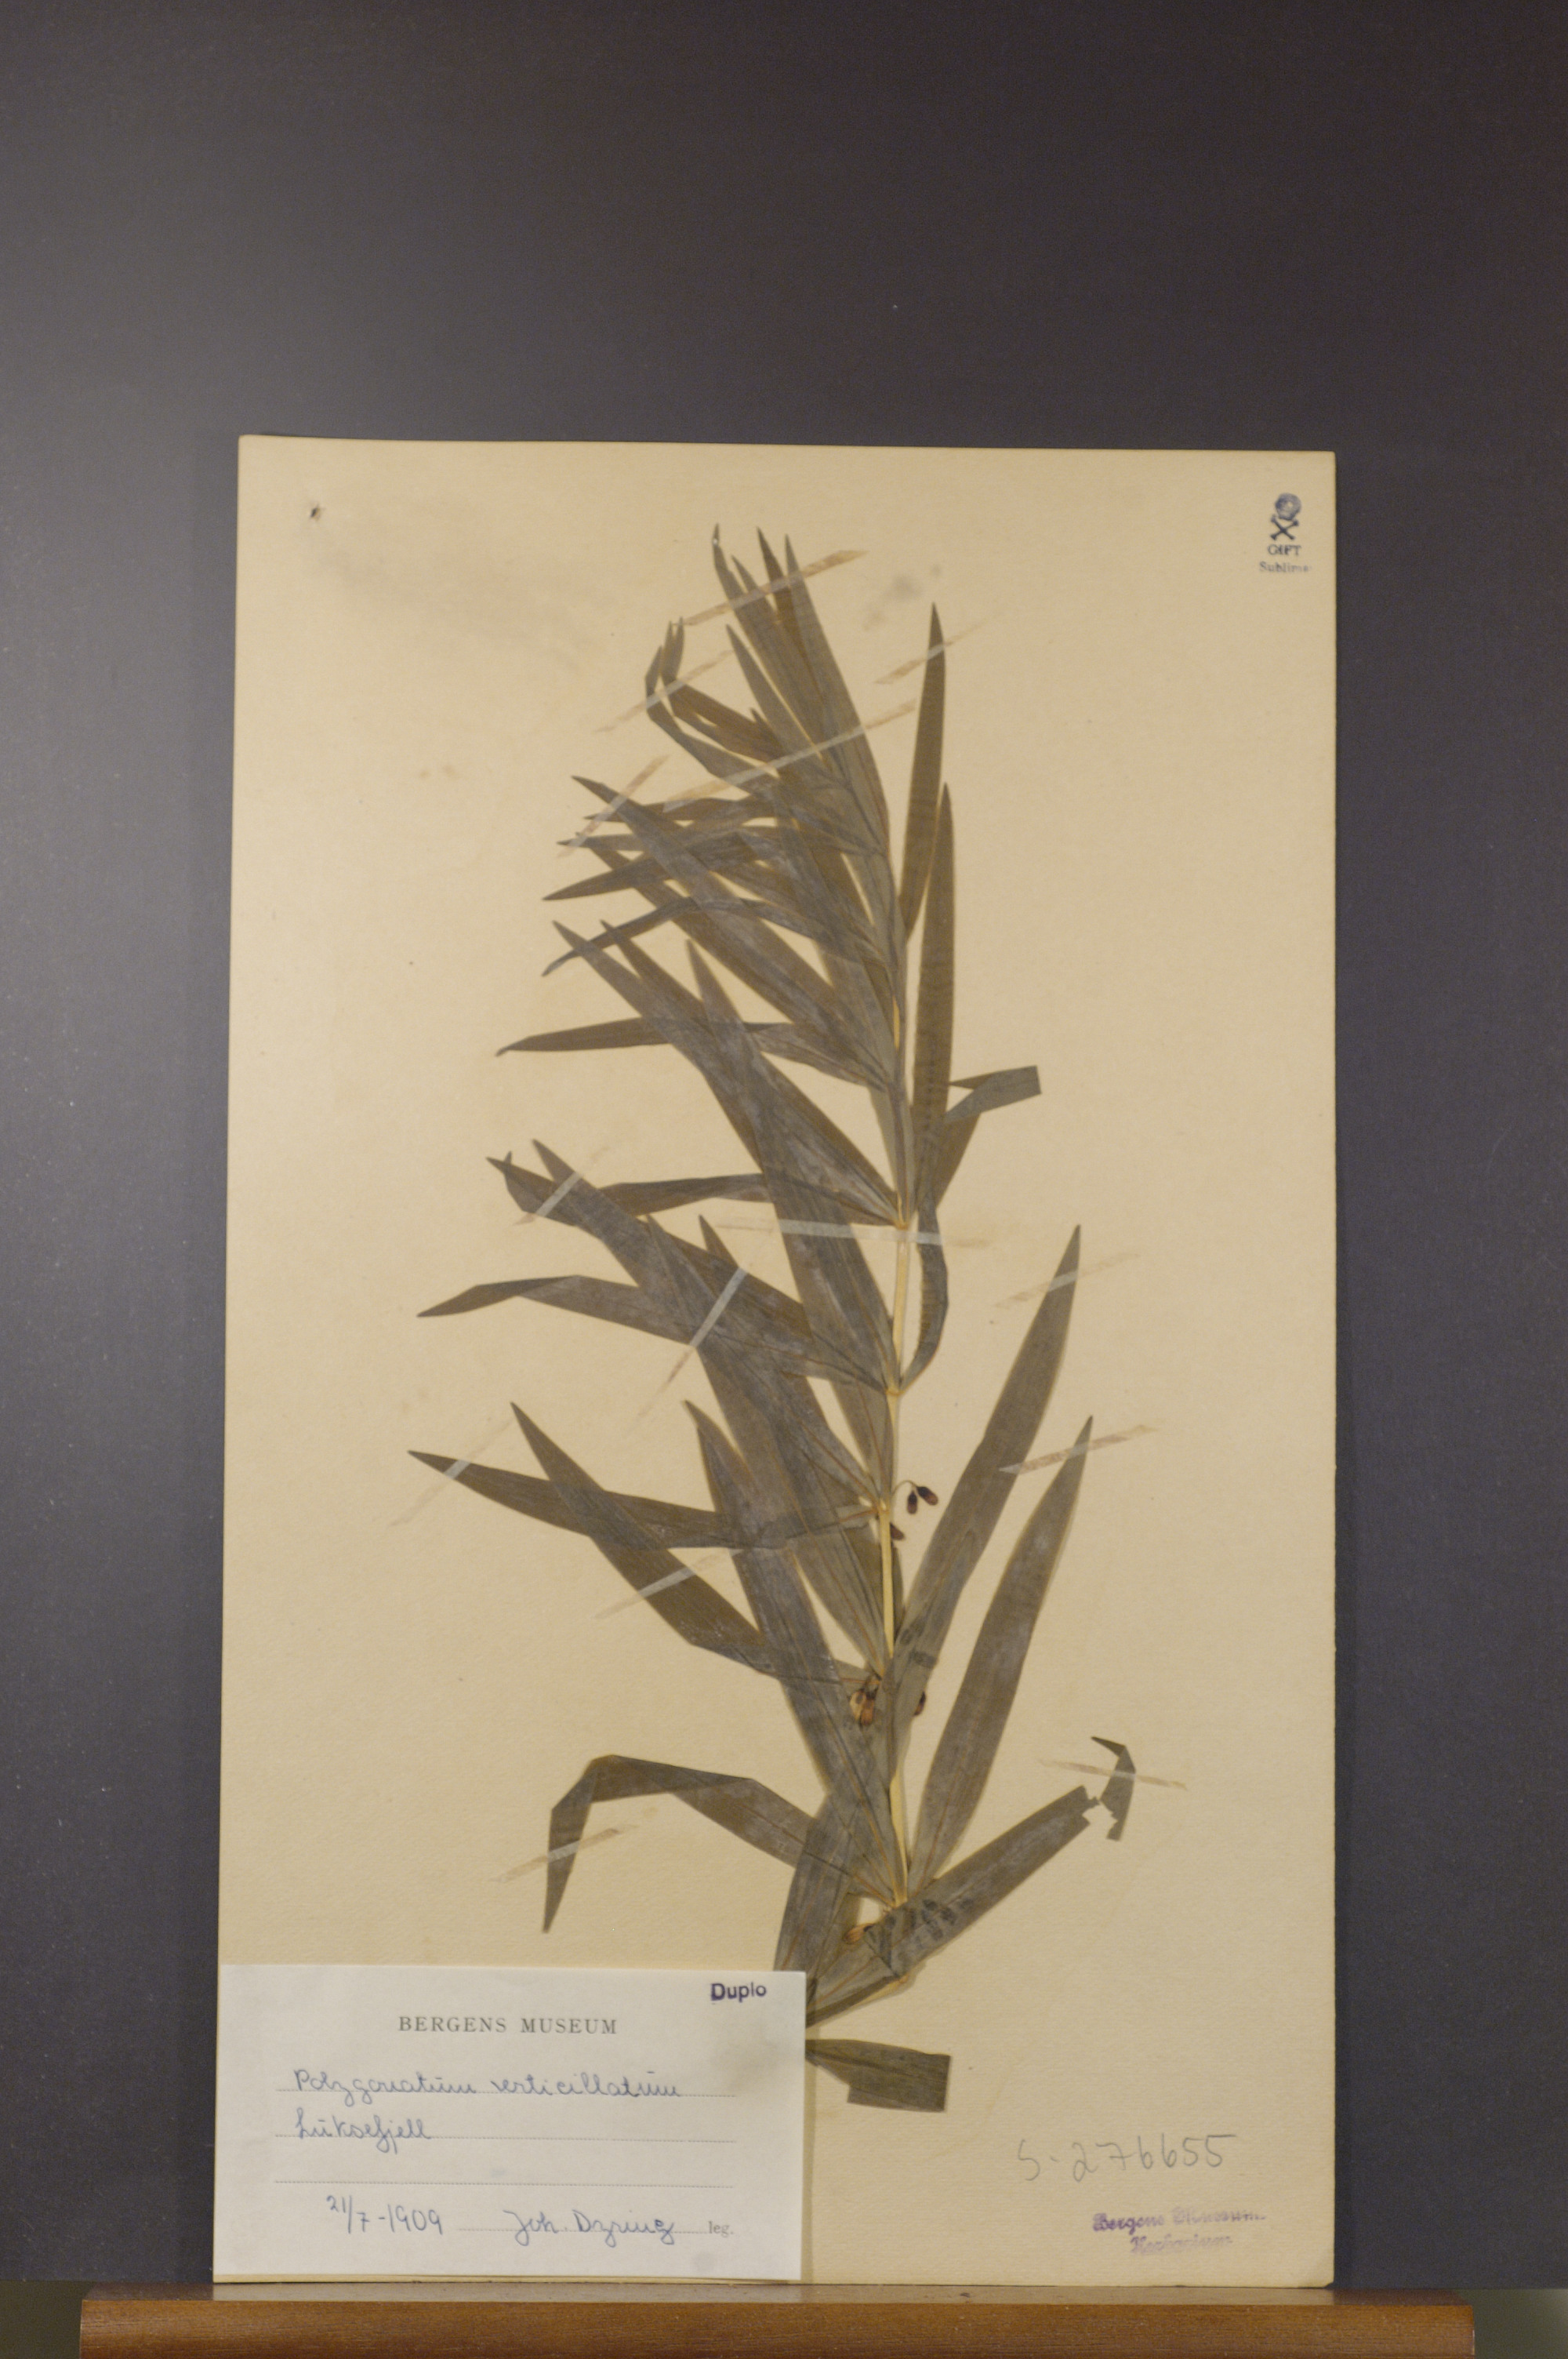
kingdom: Plantae
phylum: Tracheophyta
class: Liliopsida
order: Asparagales
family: Asparagaceae
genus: Polygonatum
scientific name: Polygonatum verticillatum
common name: Whorled solomon's-seal
